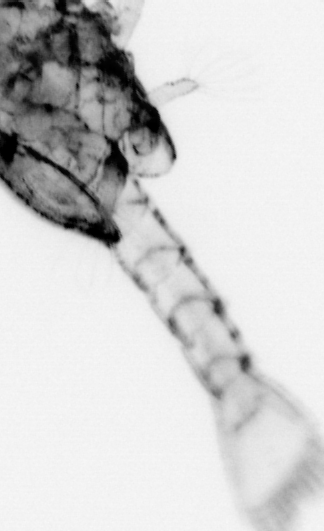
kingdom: Animalia
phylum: Arthropoda
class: Malacostraca
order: Decapoda
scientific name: Decapoda
